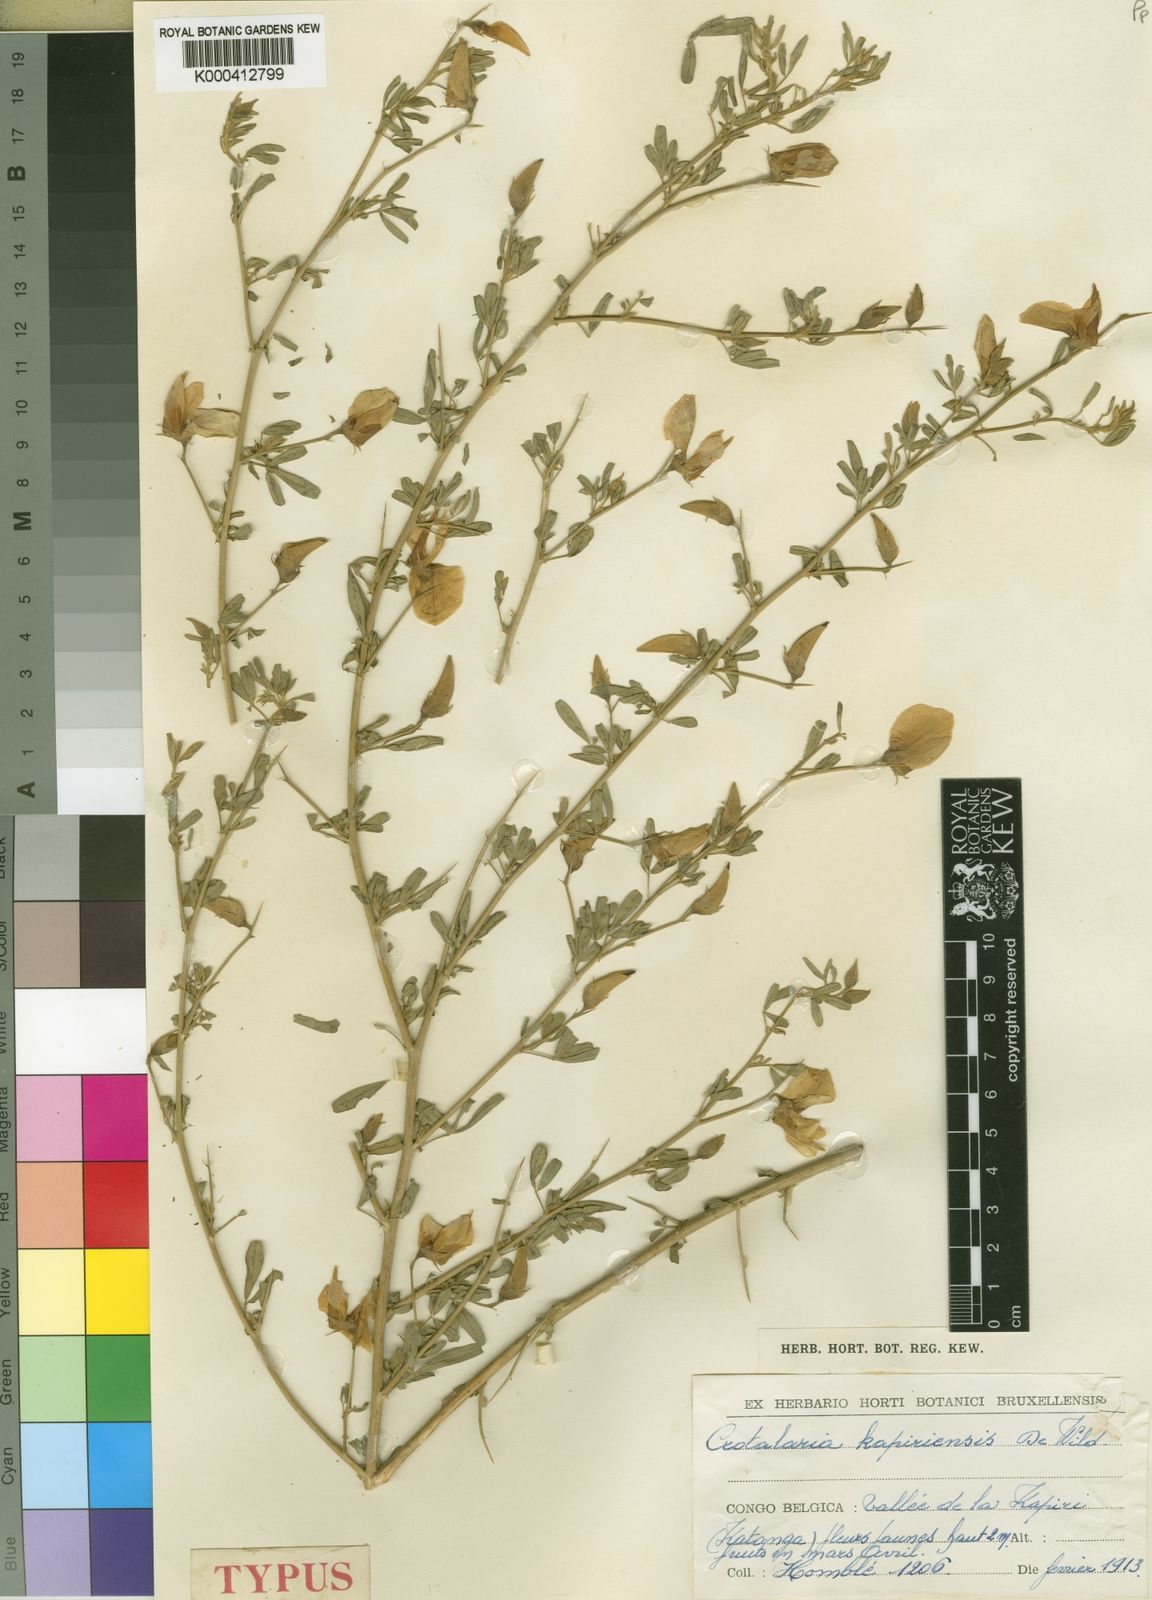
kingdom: Plantae
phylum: Tracheophyta
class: Magnoliopsida
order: Fabales
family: Fabaceae
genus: Crotalaria
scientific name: Crotalaria kapiriensis
